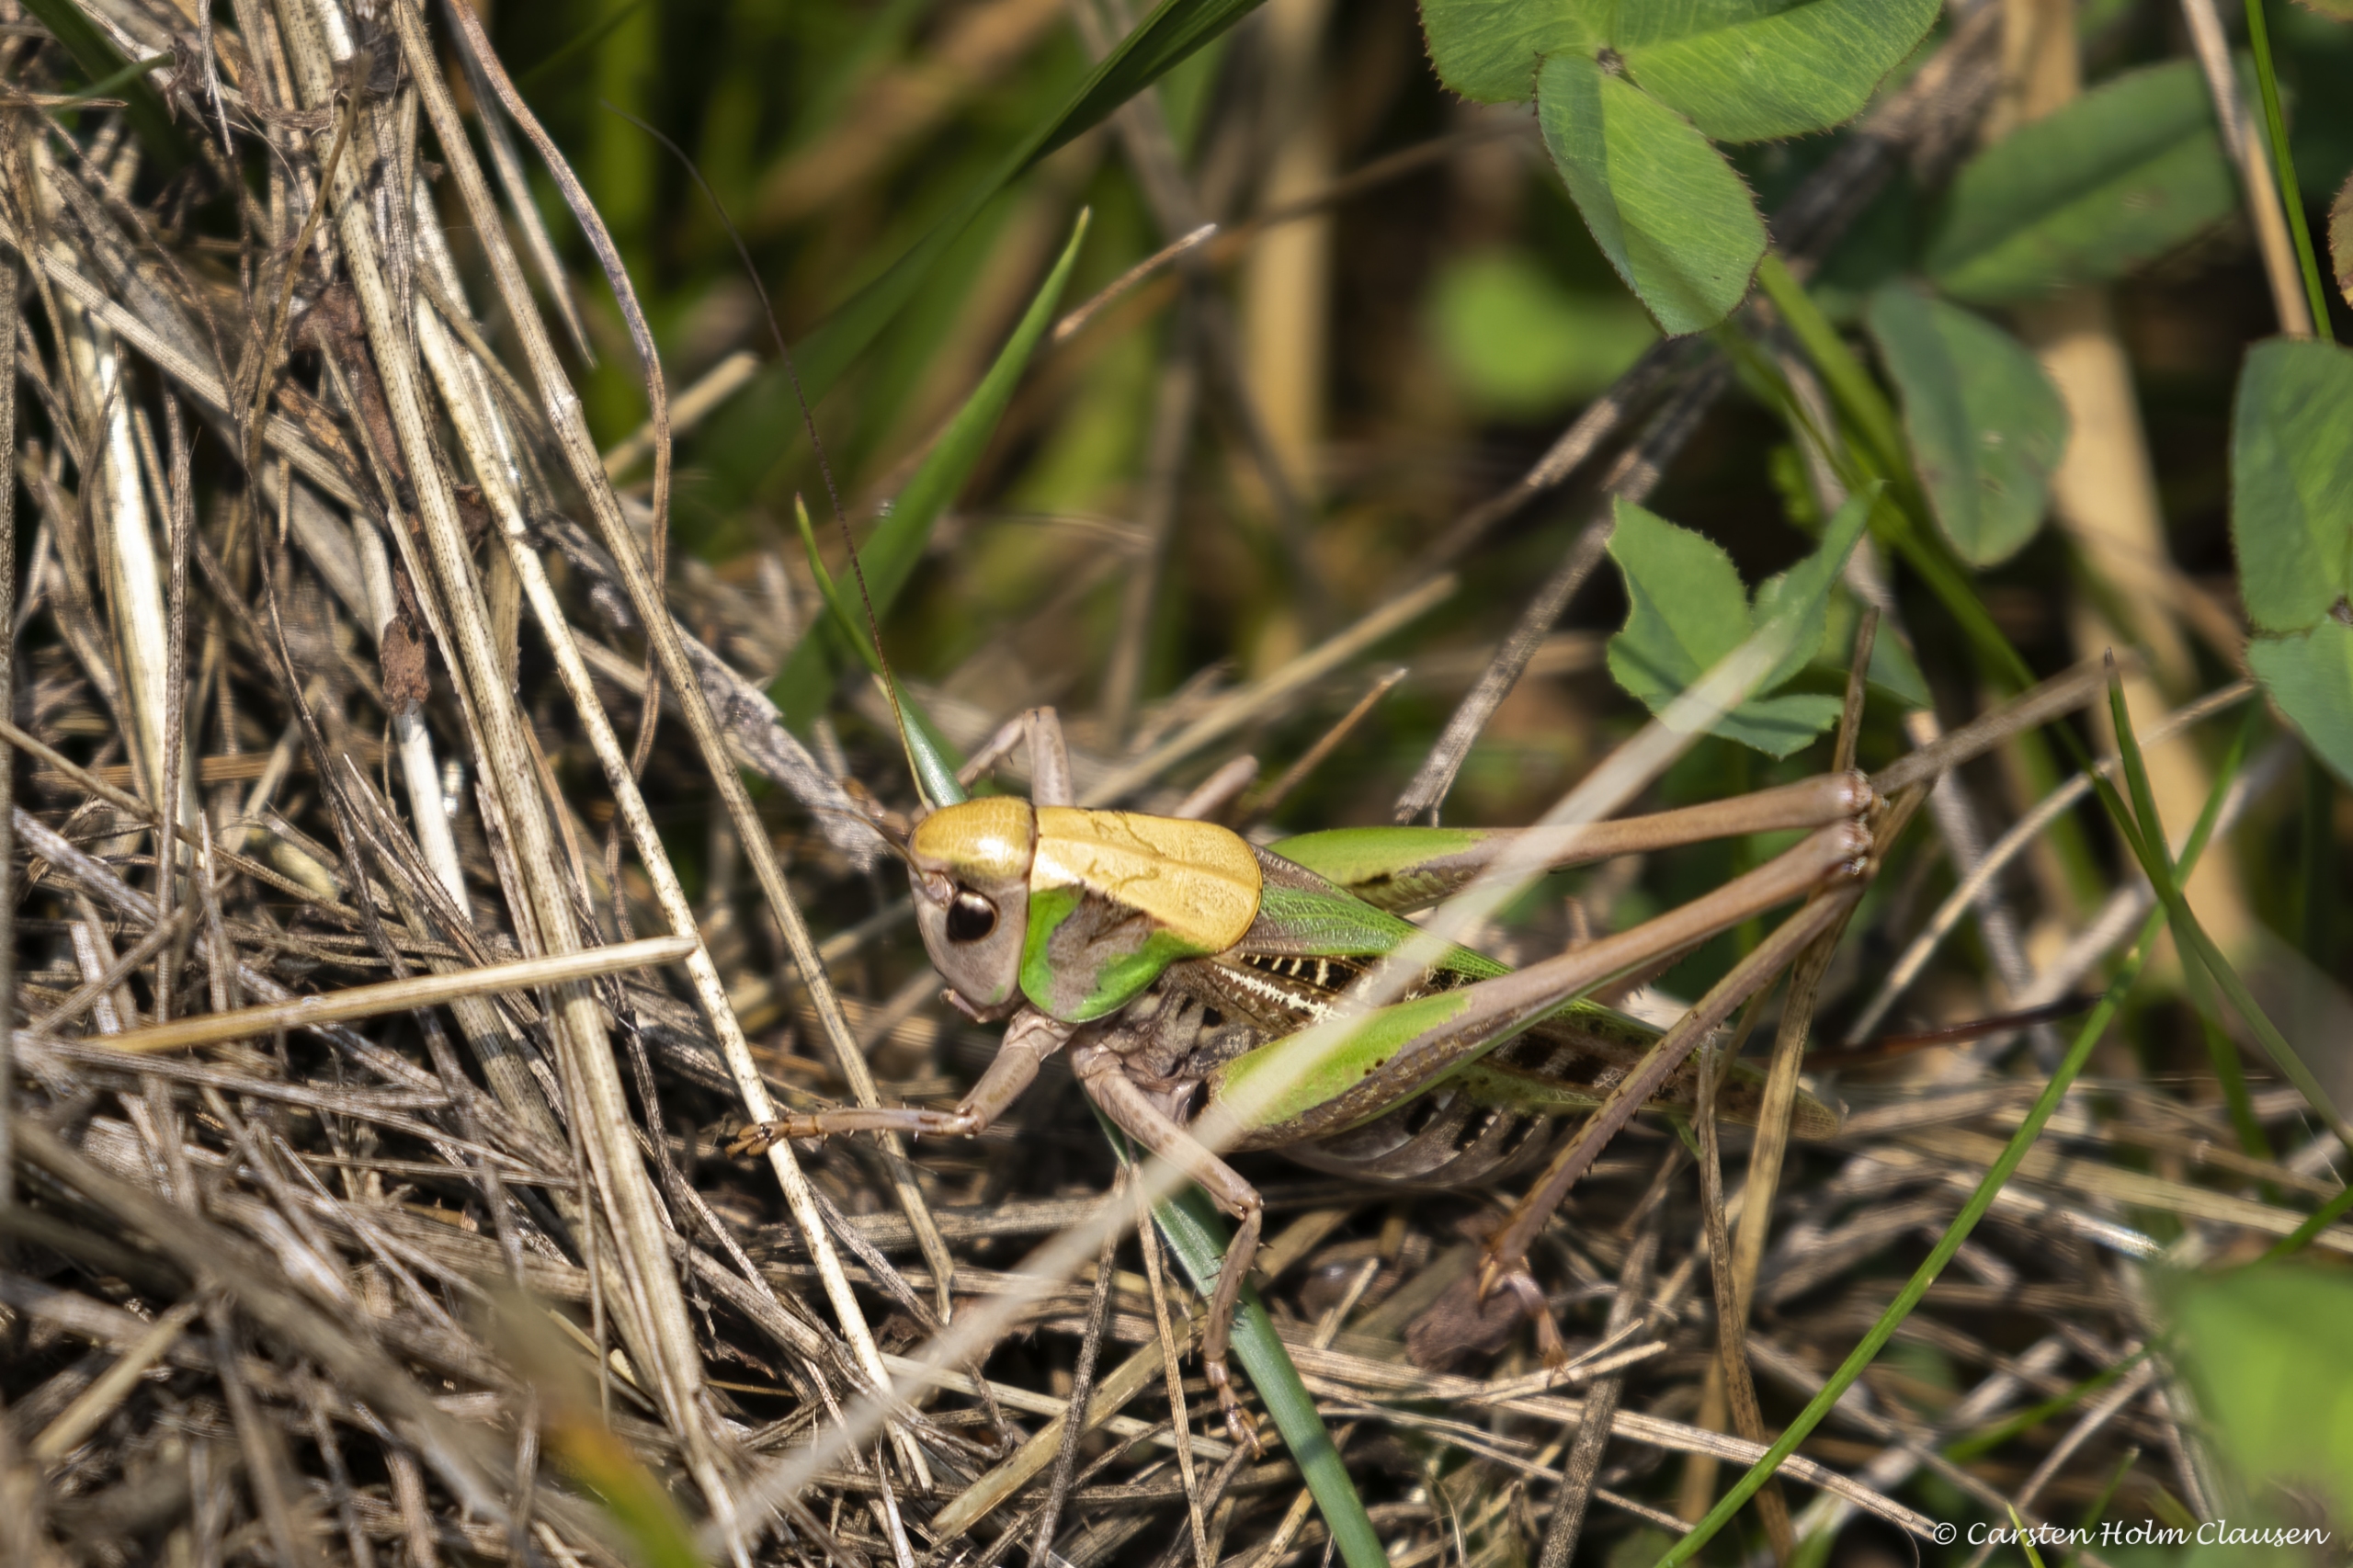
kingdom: Animalia
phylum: Arthropoda
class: Insecta
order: Orthoptera
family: Tettigoniidae
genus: Decticus
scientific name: Decticus verrucivorus
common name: Vortebider
